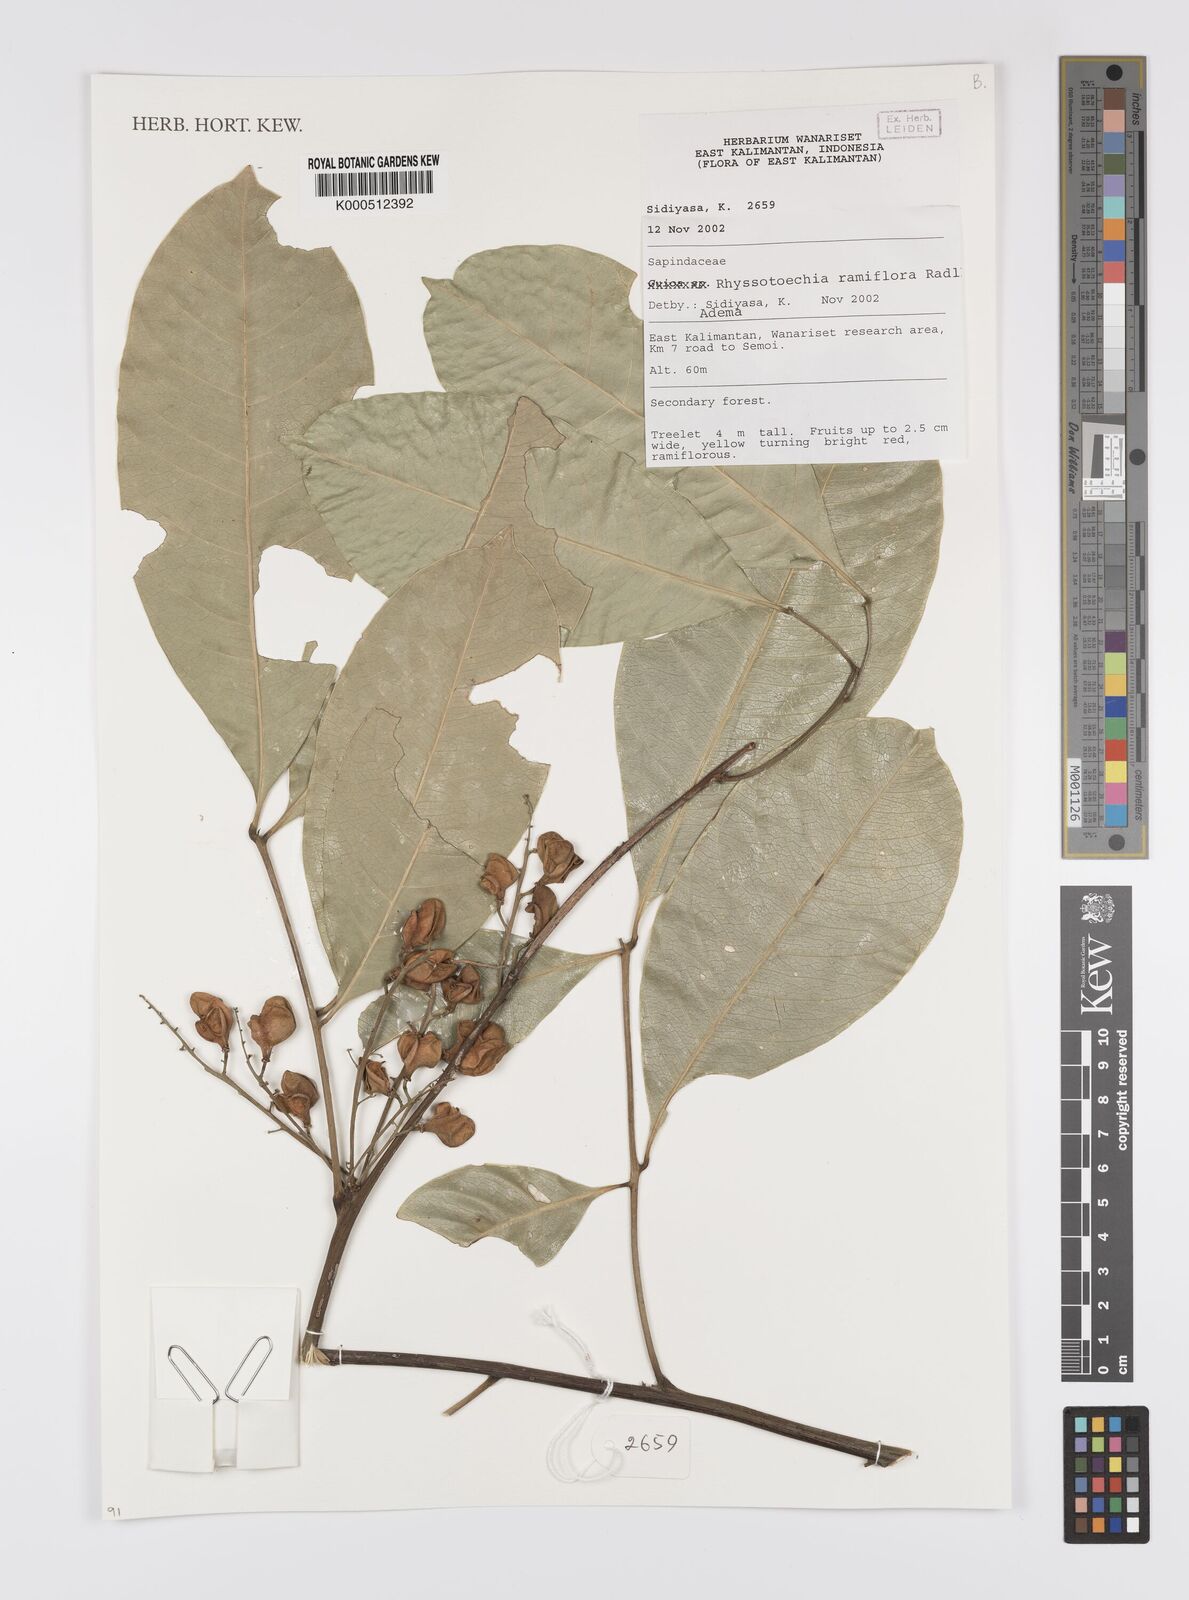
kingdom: Plantae
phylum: Tracheophyta
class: Magnoliopsida
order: Sapindales
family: Sapindaceae
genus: Rhysotoechia
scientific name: Rhysotoechia
